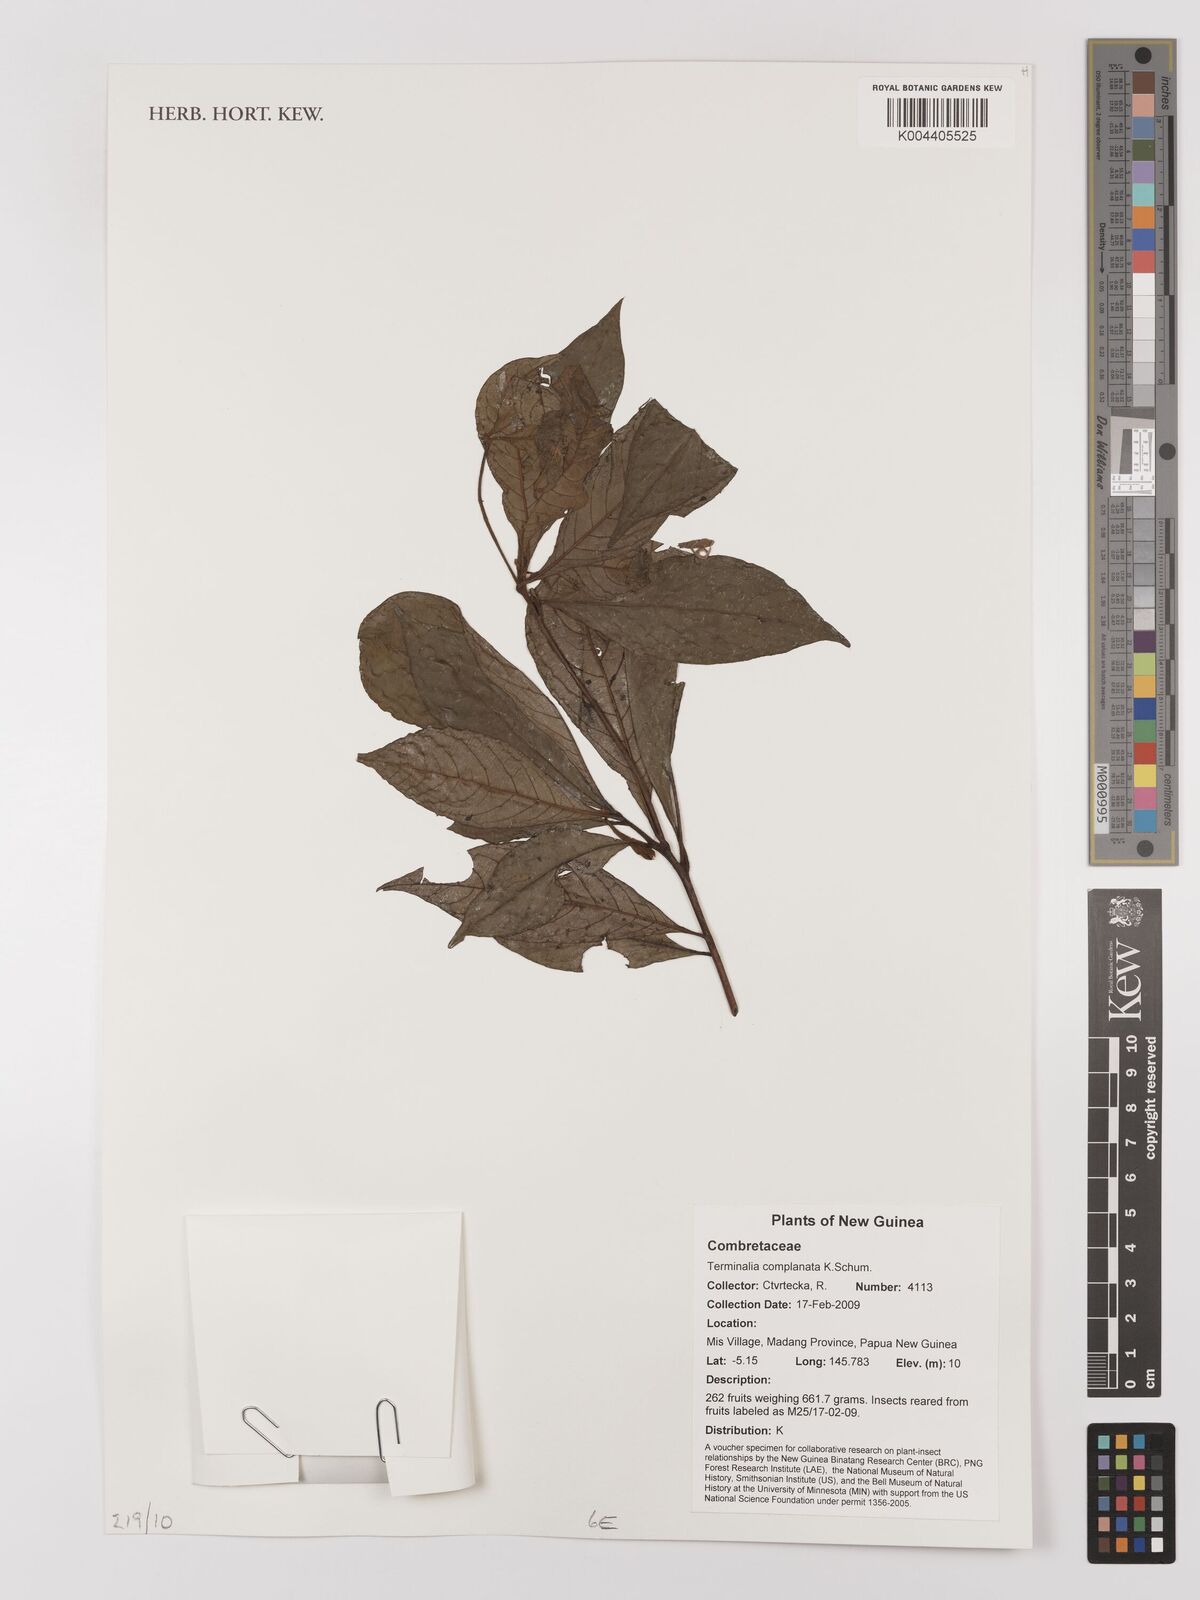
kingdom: Plantae
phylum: Tracheophyta
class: Magnoliopsida
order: Myrtales
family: Combretaceae
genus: Terminalia
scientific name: Terminalia complanata
